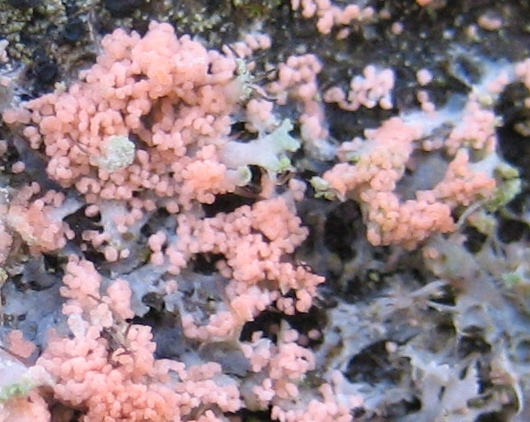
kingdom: Fungi
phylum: Basidiomycota
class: Agaricomycetes
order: Corticiales
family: Corticiaceae
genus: Erythricium
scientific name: Erythricium aurantiacum
